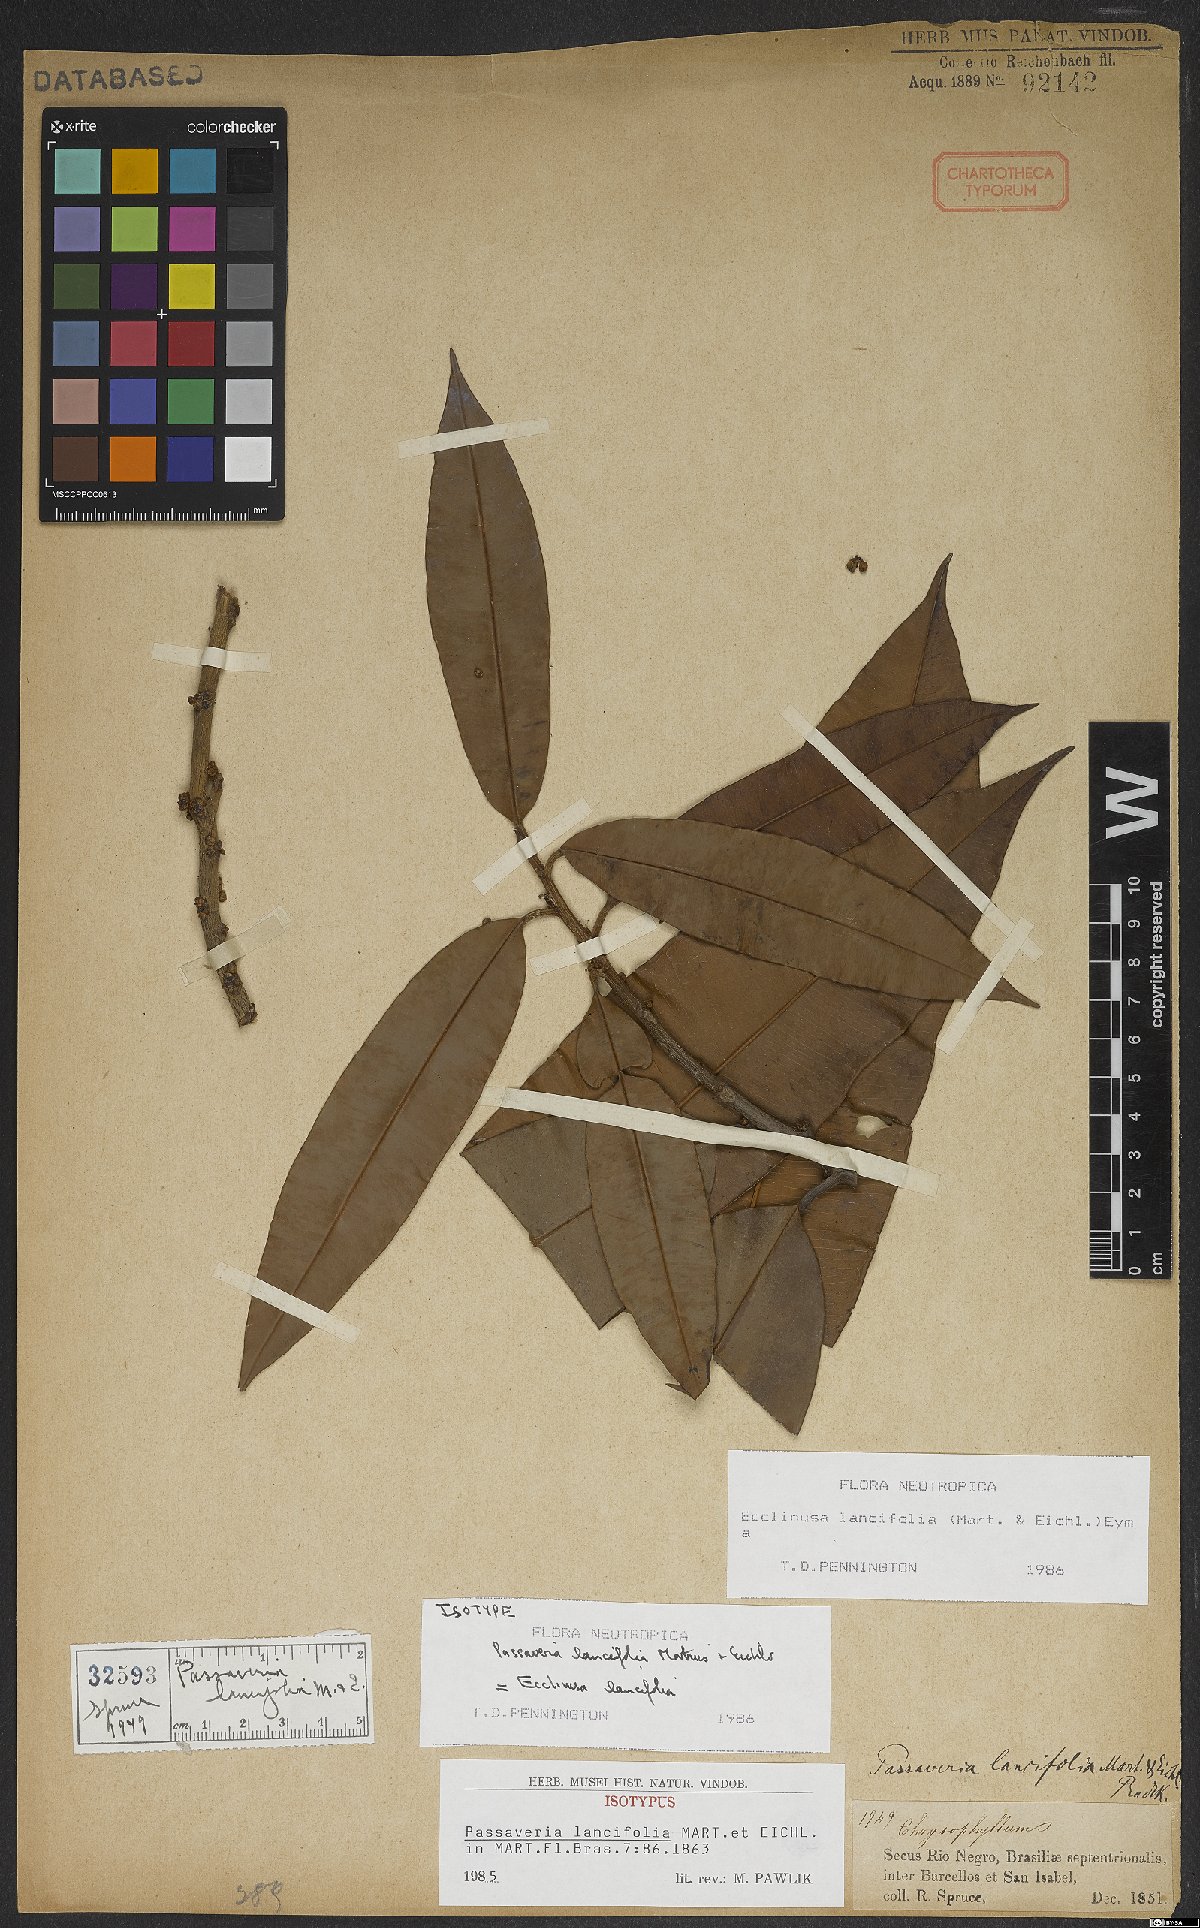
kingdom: Plantae
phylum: Tracheophyta
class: Magnoliopsida
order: Ericales
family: Sapotaceae
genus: Ecclinusa
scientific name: Ecclinusa lancifolia
